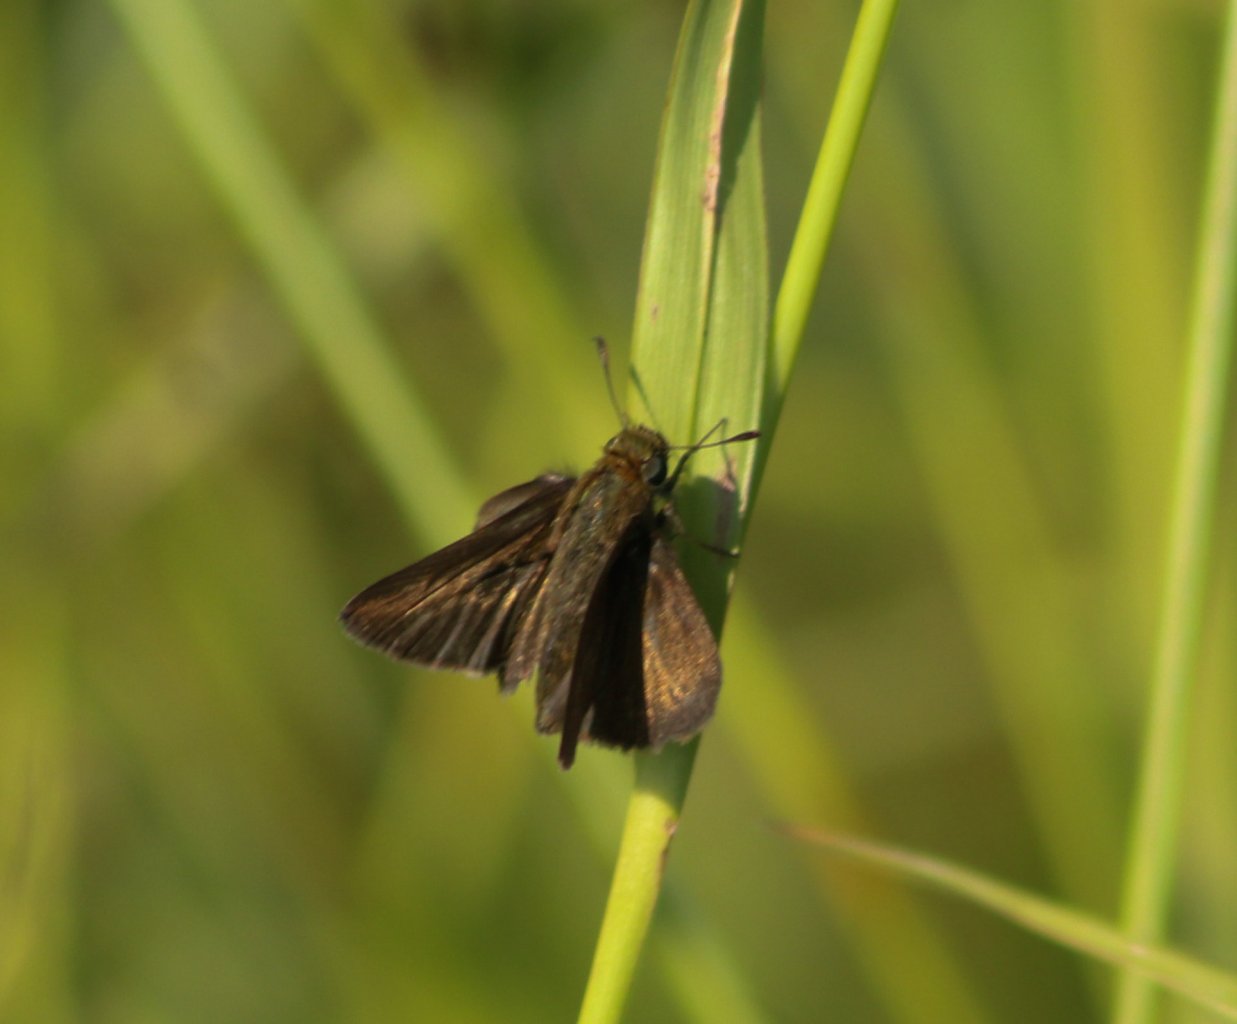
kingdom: Animalia
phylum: Arthropoda
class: Insecta
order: Lepidoptera
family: Hesperiidae
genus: Euphyes
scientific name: Euphyes vestris
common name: Dun Skipper
